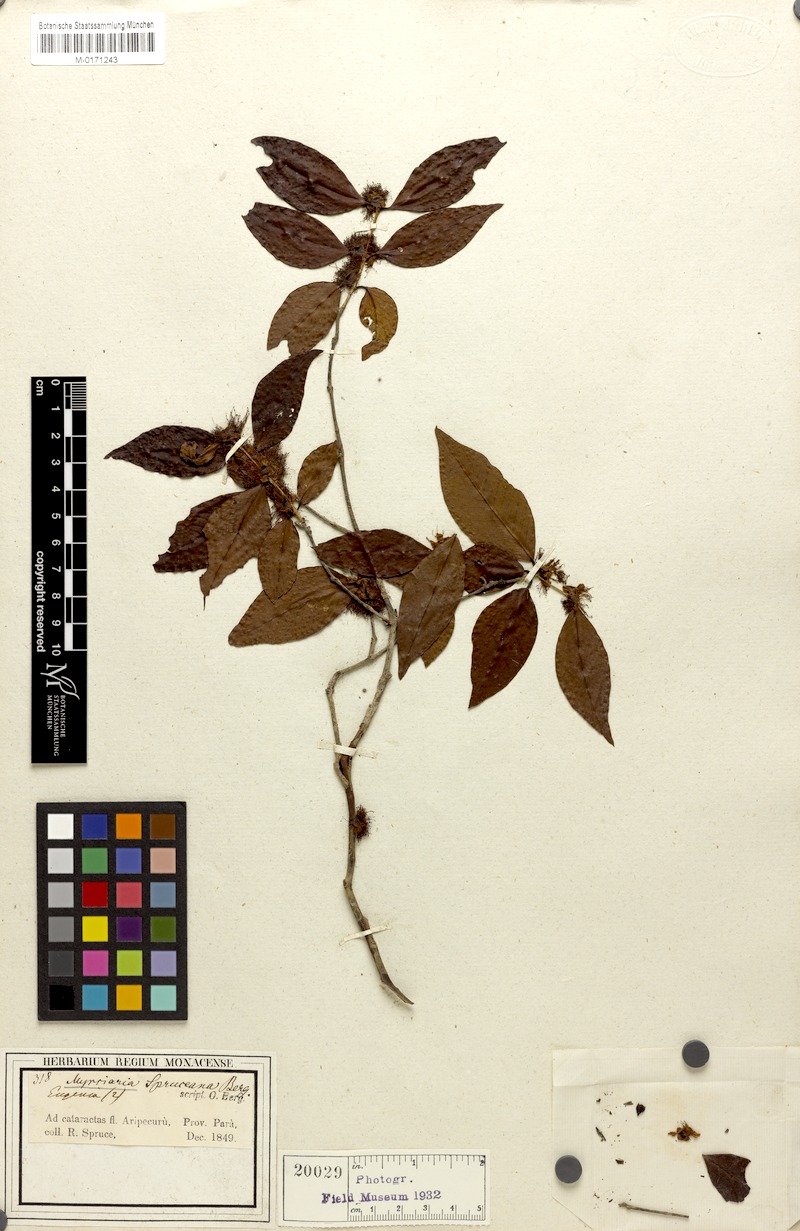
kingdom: Plantae
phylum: Tracheophyta
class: Magnoliopsida
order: Myrtales
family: Myrtaceae
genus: Myrciaria
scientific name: Myrciaria dubia
